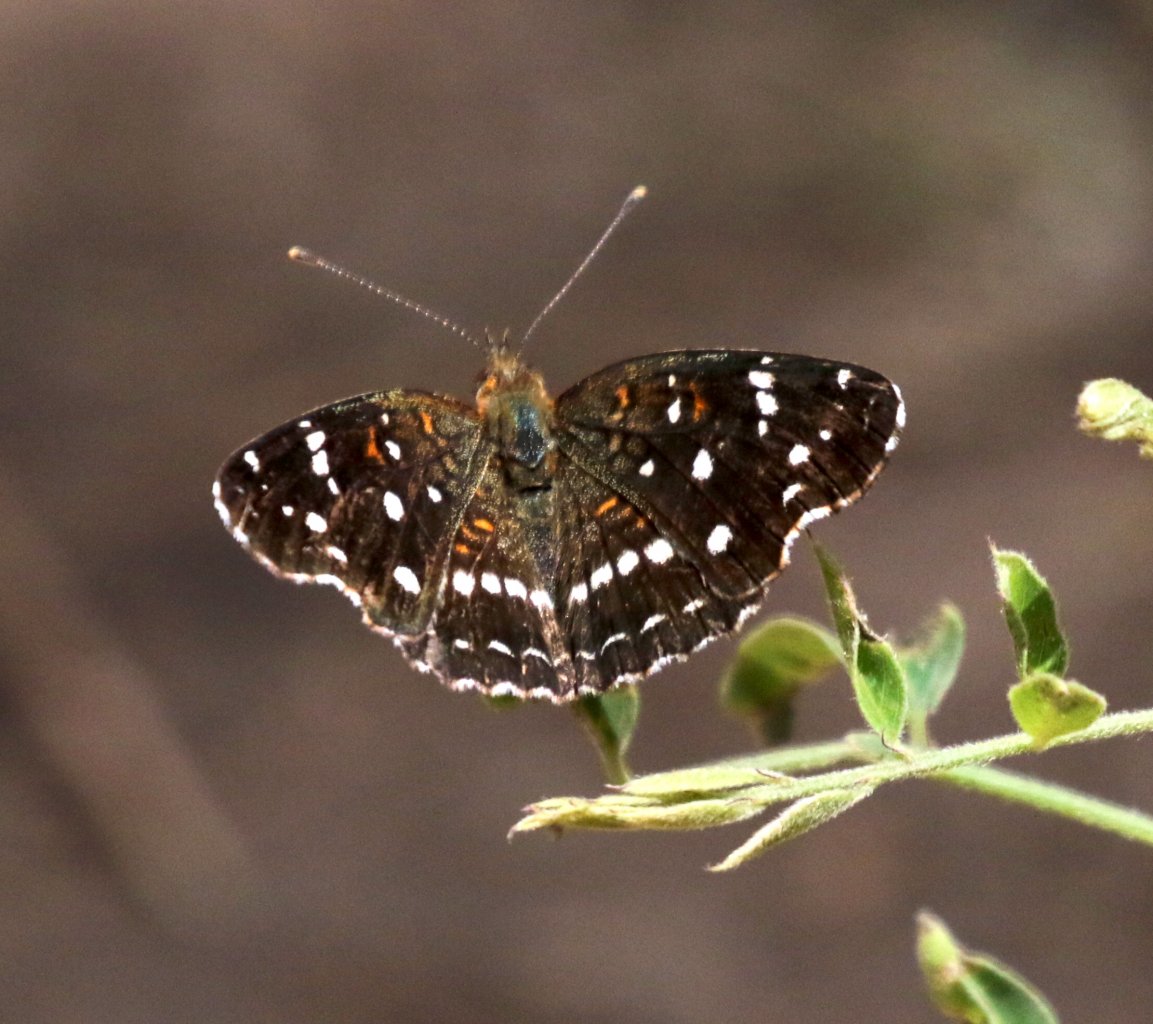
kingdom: Animalia
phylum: Arthropoda
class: Insecta
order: Lepidoptera
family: Nymphalidae
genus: Anthanassa
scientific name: Anthanassa texana
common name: Texan Crescent
